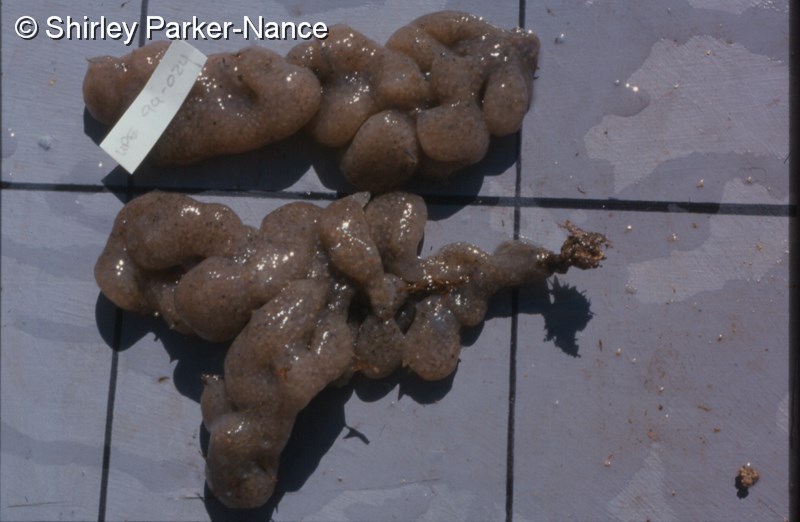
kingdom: Animalia
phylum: Chordata
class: Ascidiacea
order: Aplousobranchia
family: Holozoidae
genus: Distaplia
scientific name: Distaplia skoogi
